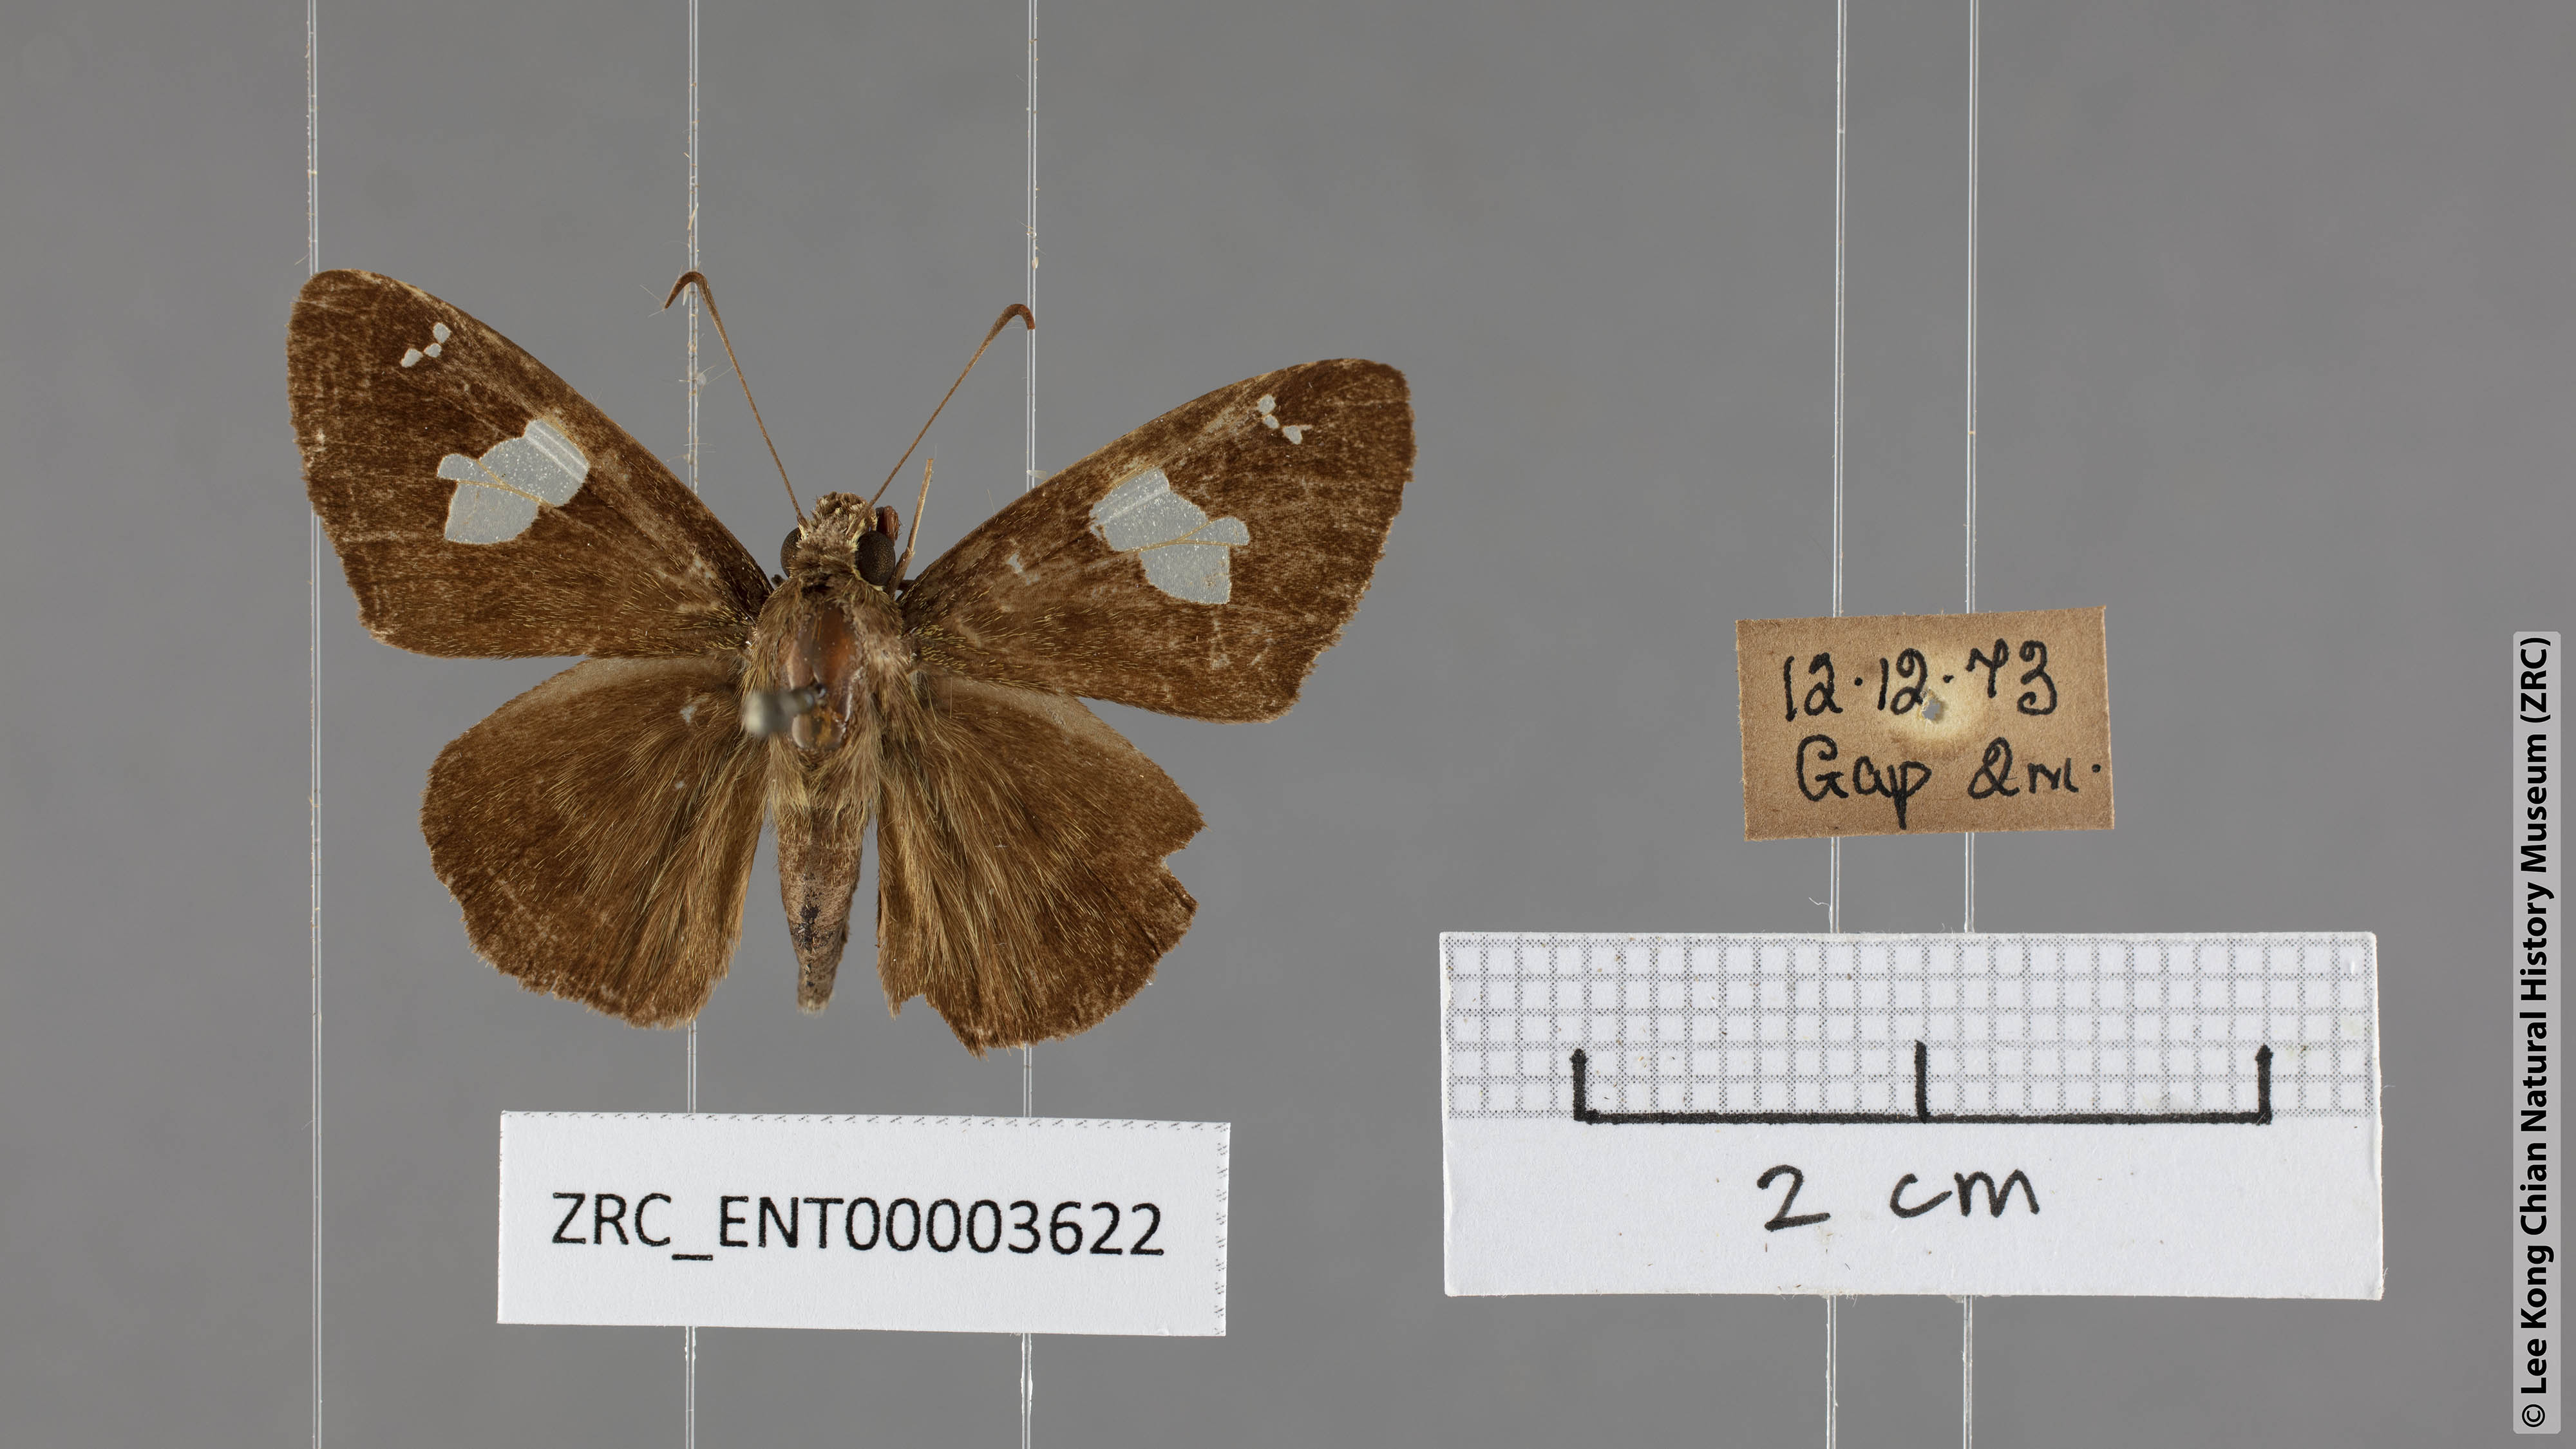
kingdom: Animalia
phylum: Arthropoda
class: Insecta
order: Lepidoptera
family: Hesperiidae
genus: Celaenorrhinus
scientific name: Celaenorrhinus asmara
